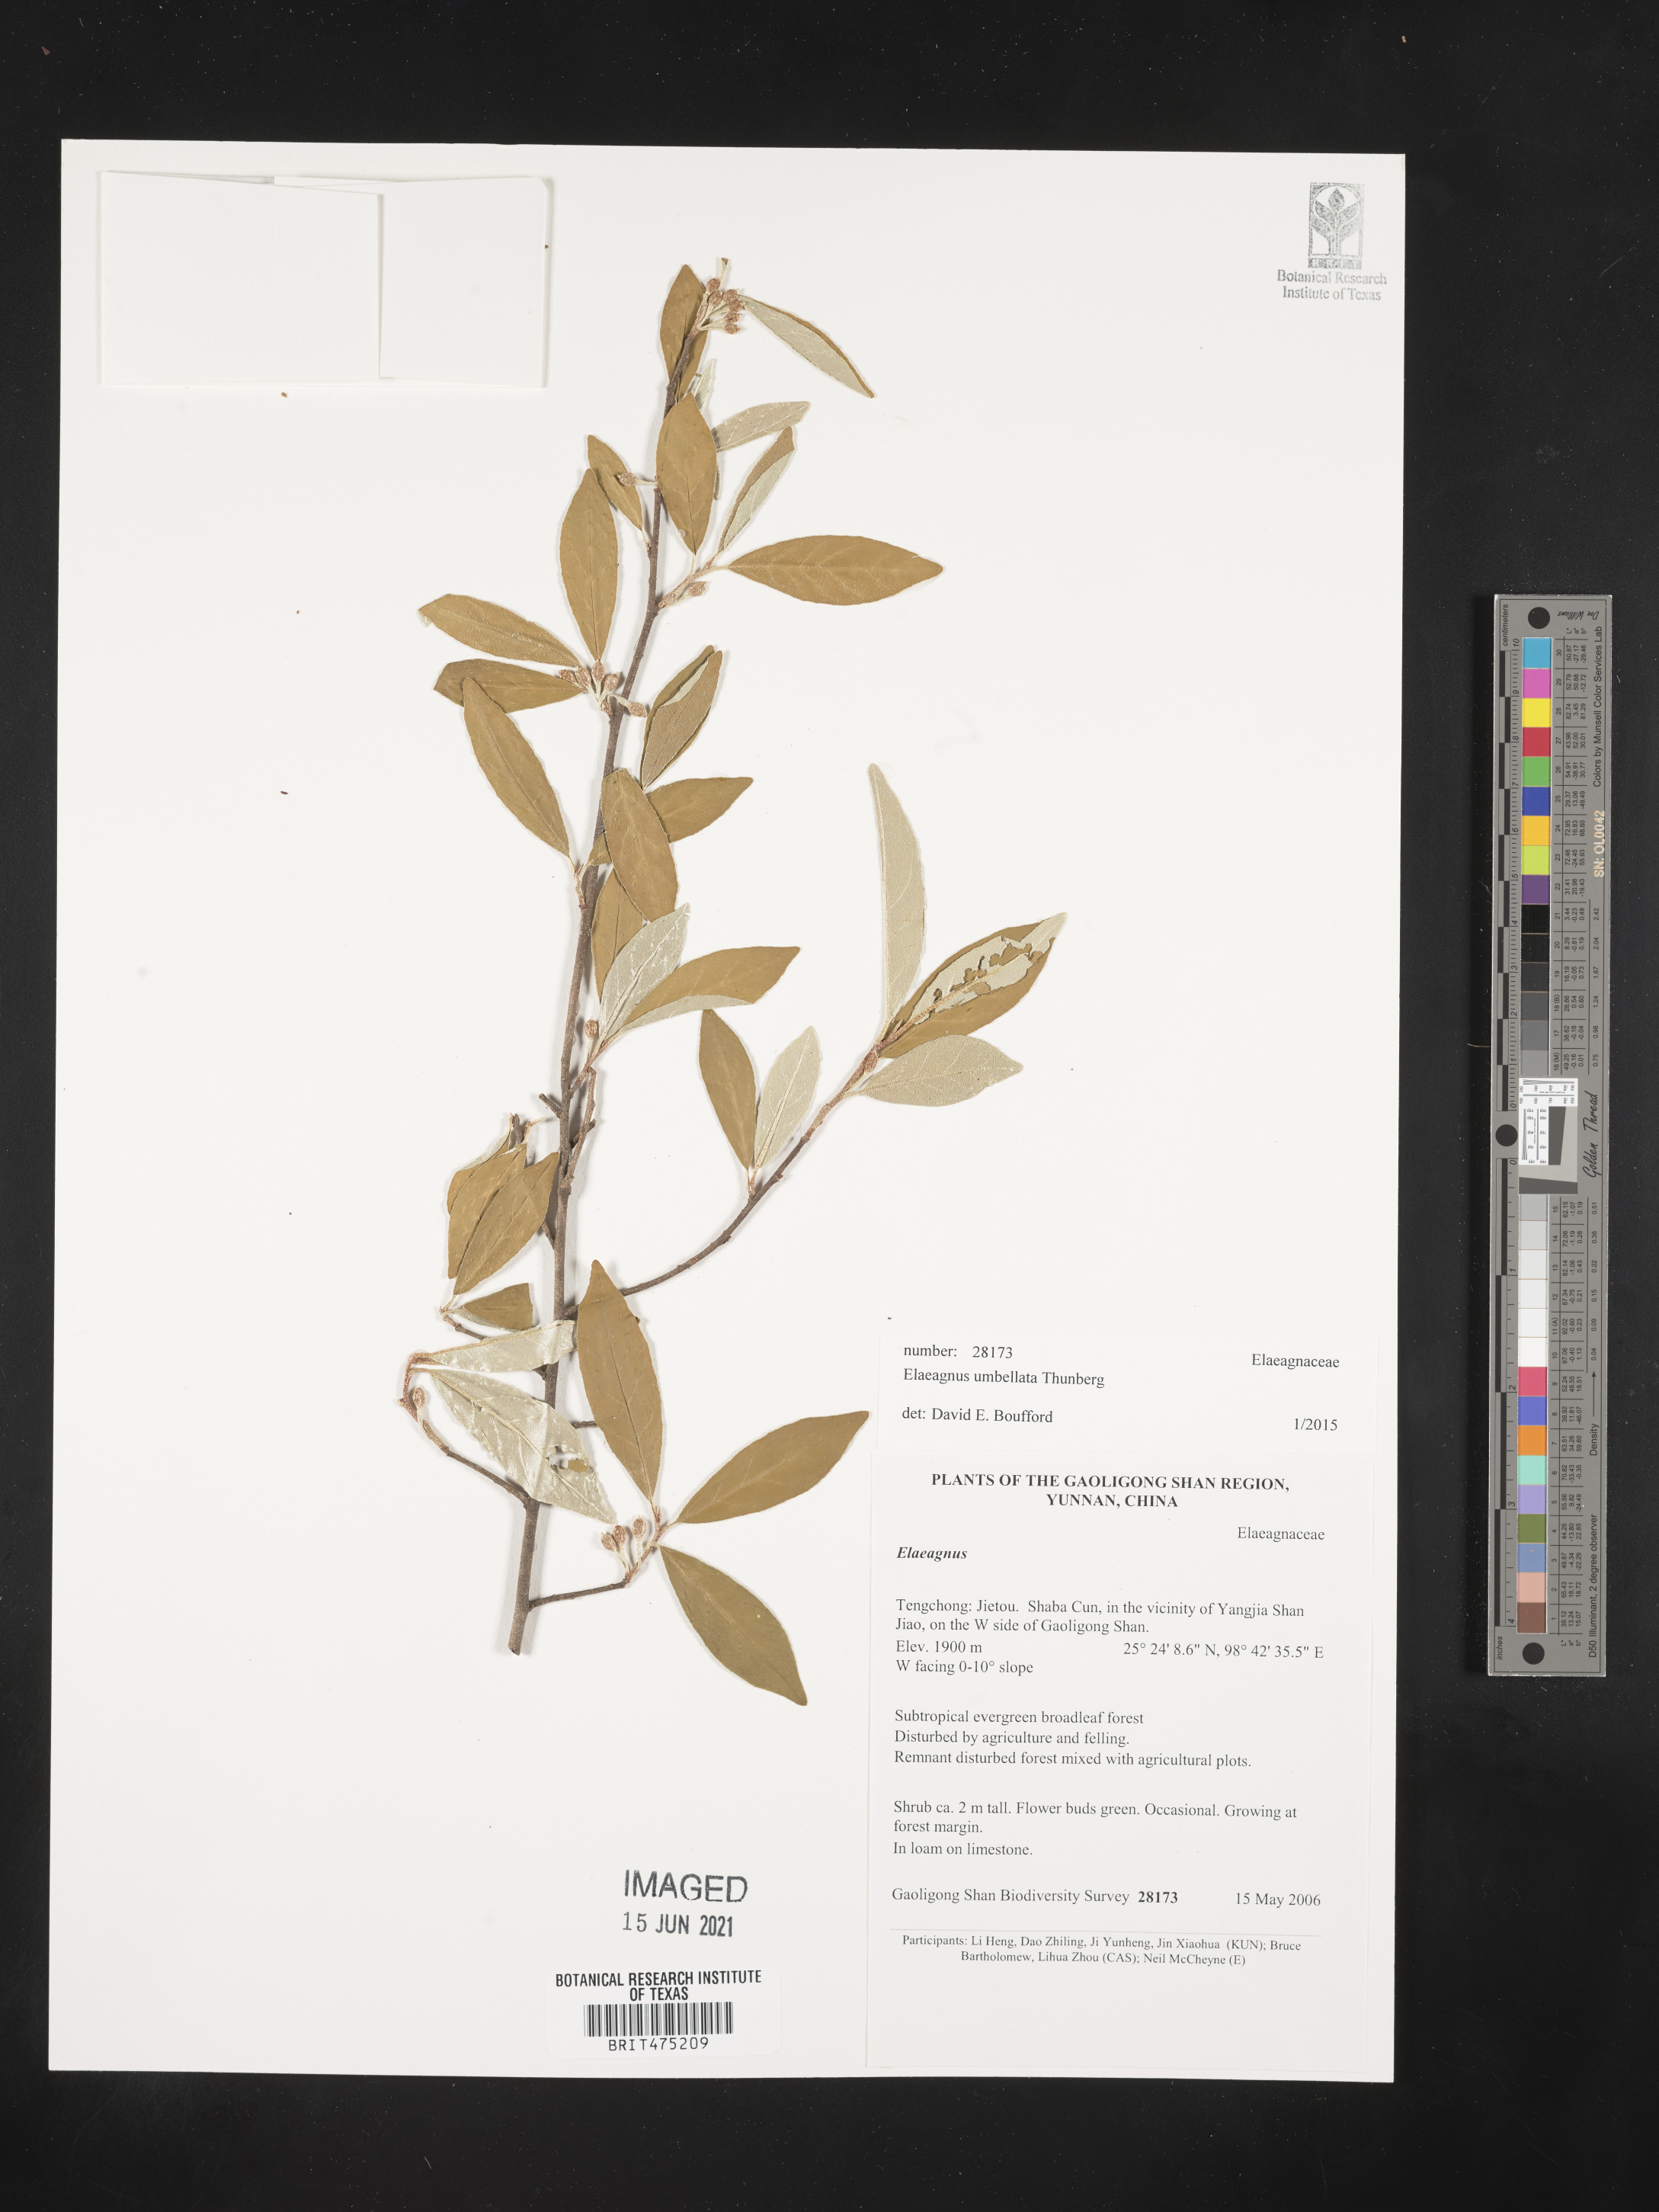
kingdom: Plantae
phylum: Tracheophyta
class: Magnoliopsida
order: Rosales
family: Elaeagnaceae
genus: Elaeagnus
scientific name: Elaeagnus umbellata
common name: Autumn olive
